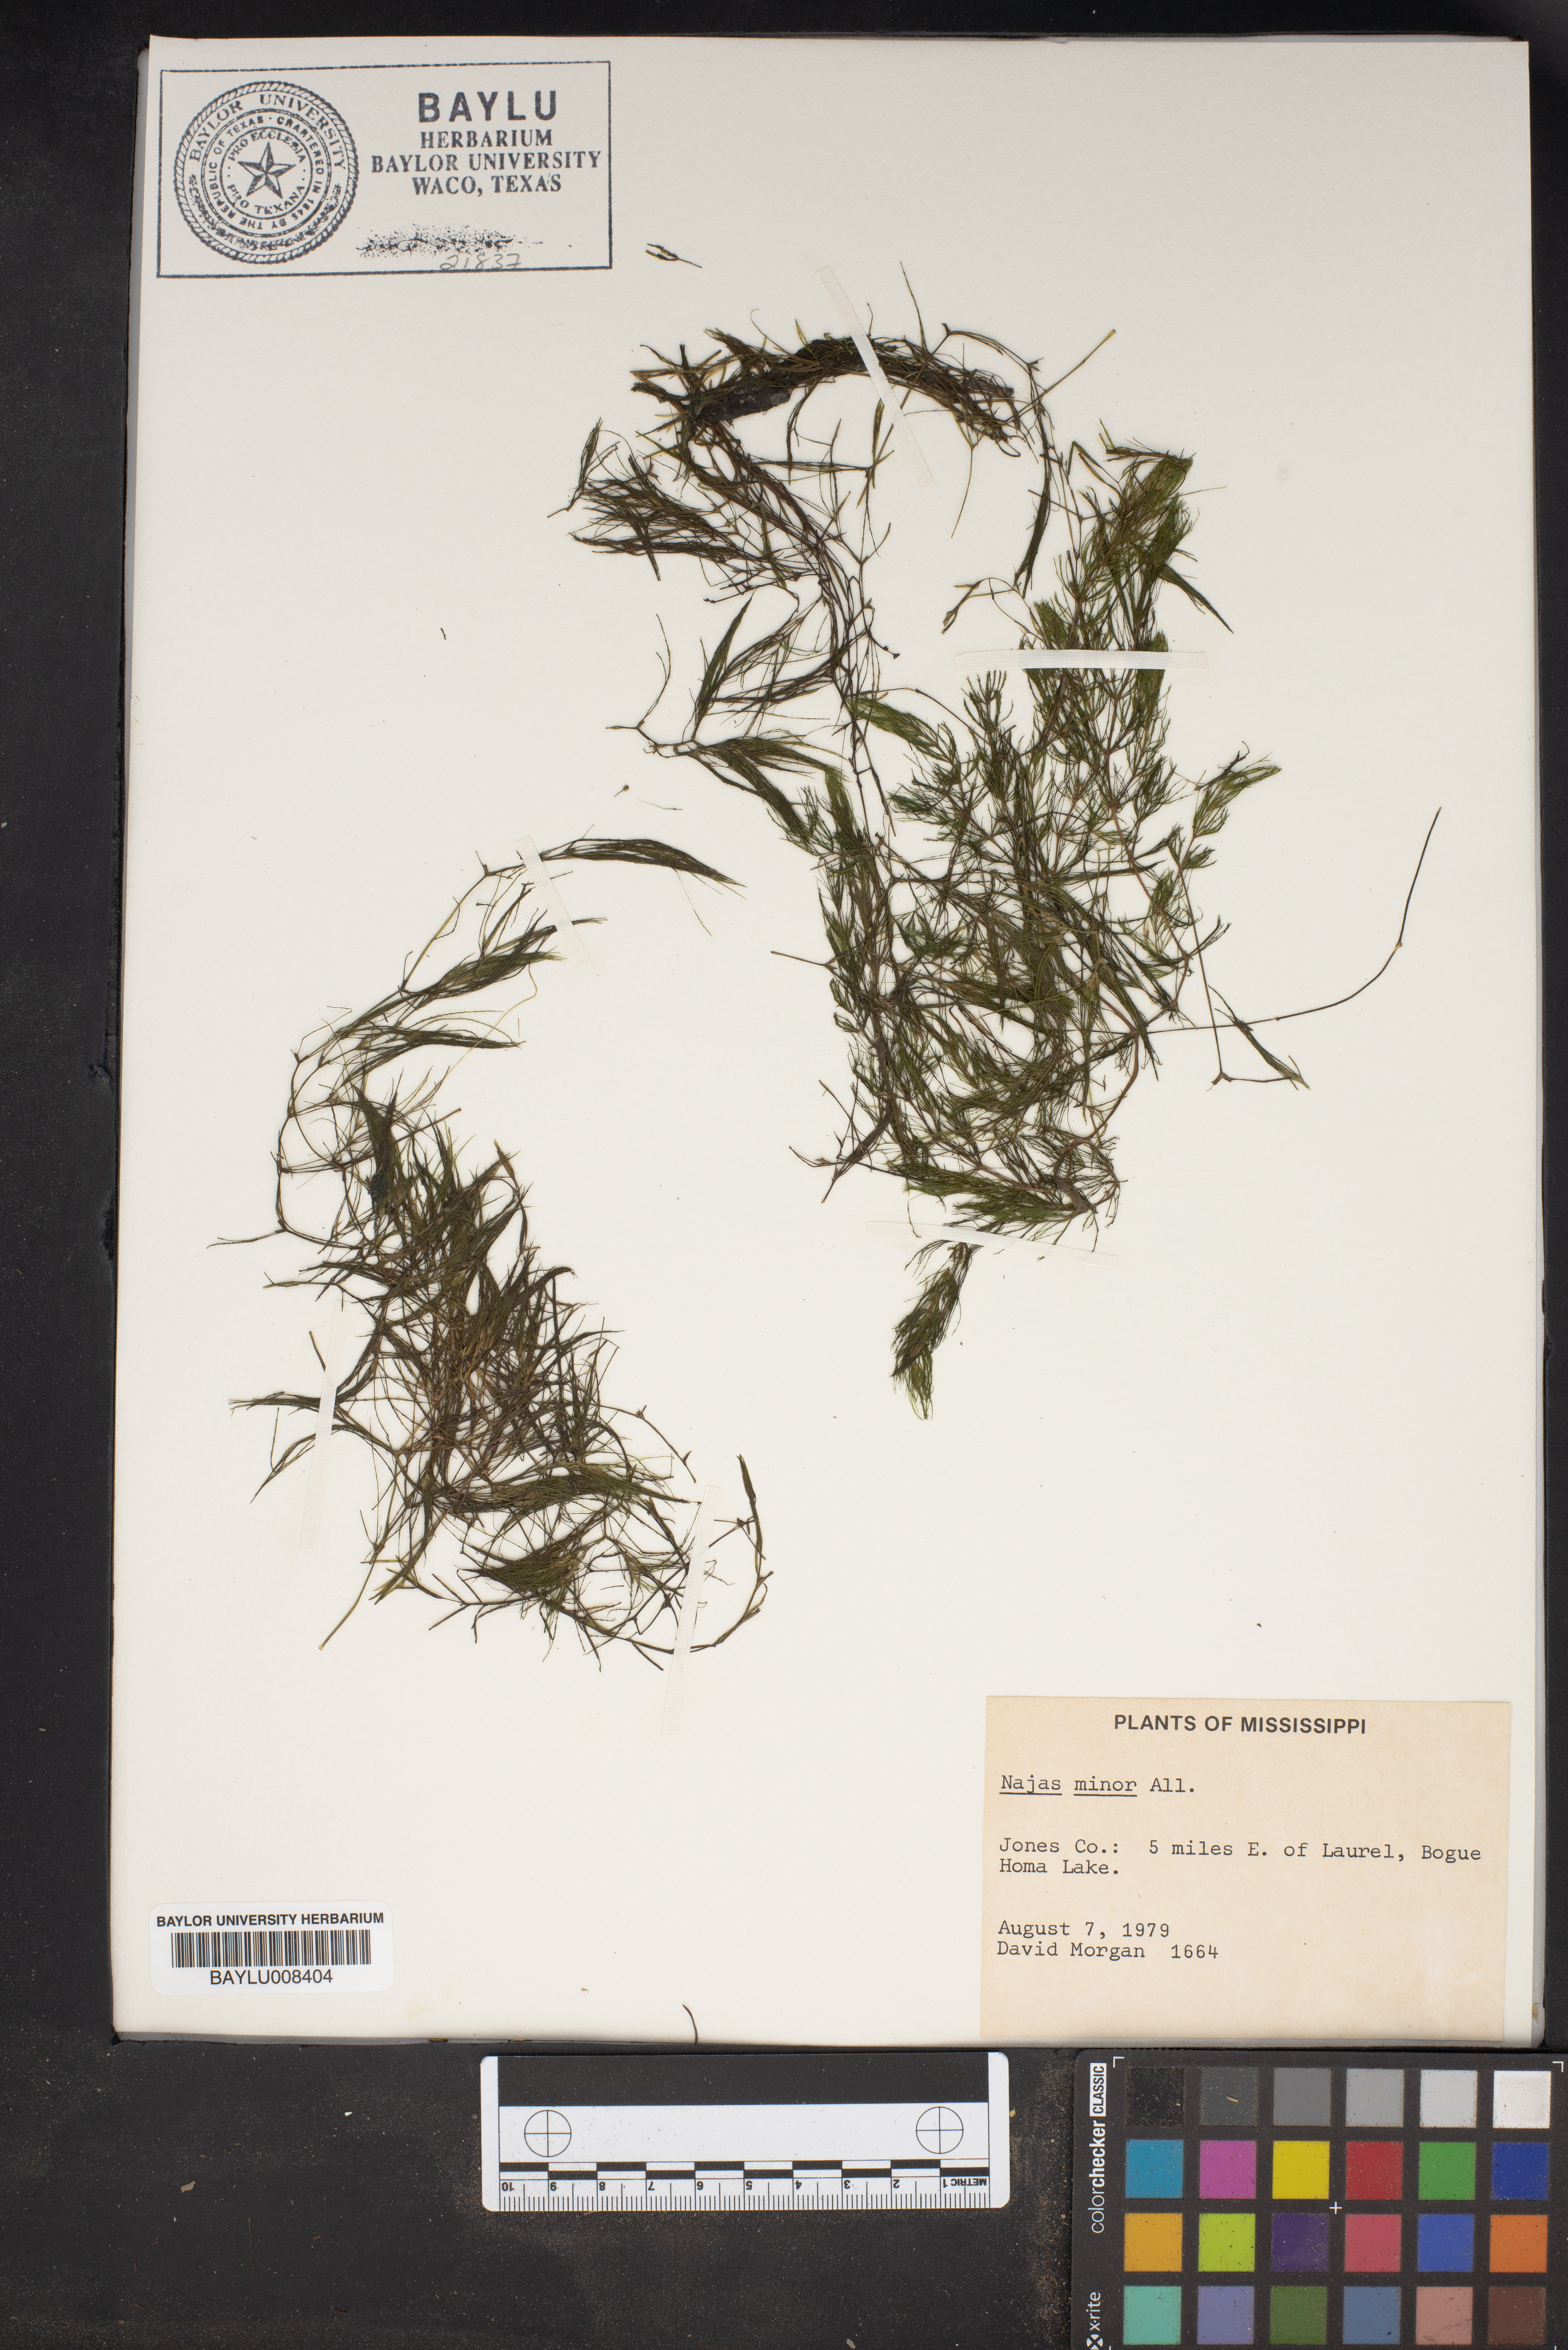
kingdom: Plantae
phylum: Tracheophyta
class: Liliopsida
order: Alismatales
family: Hydrocharitaceae
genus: Najas
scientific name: Najas minor
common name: Brittle naiad
